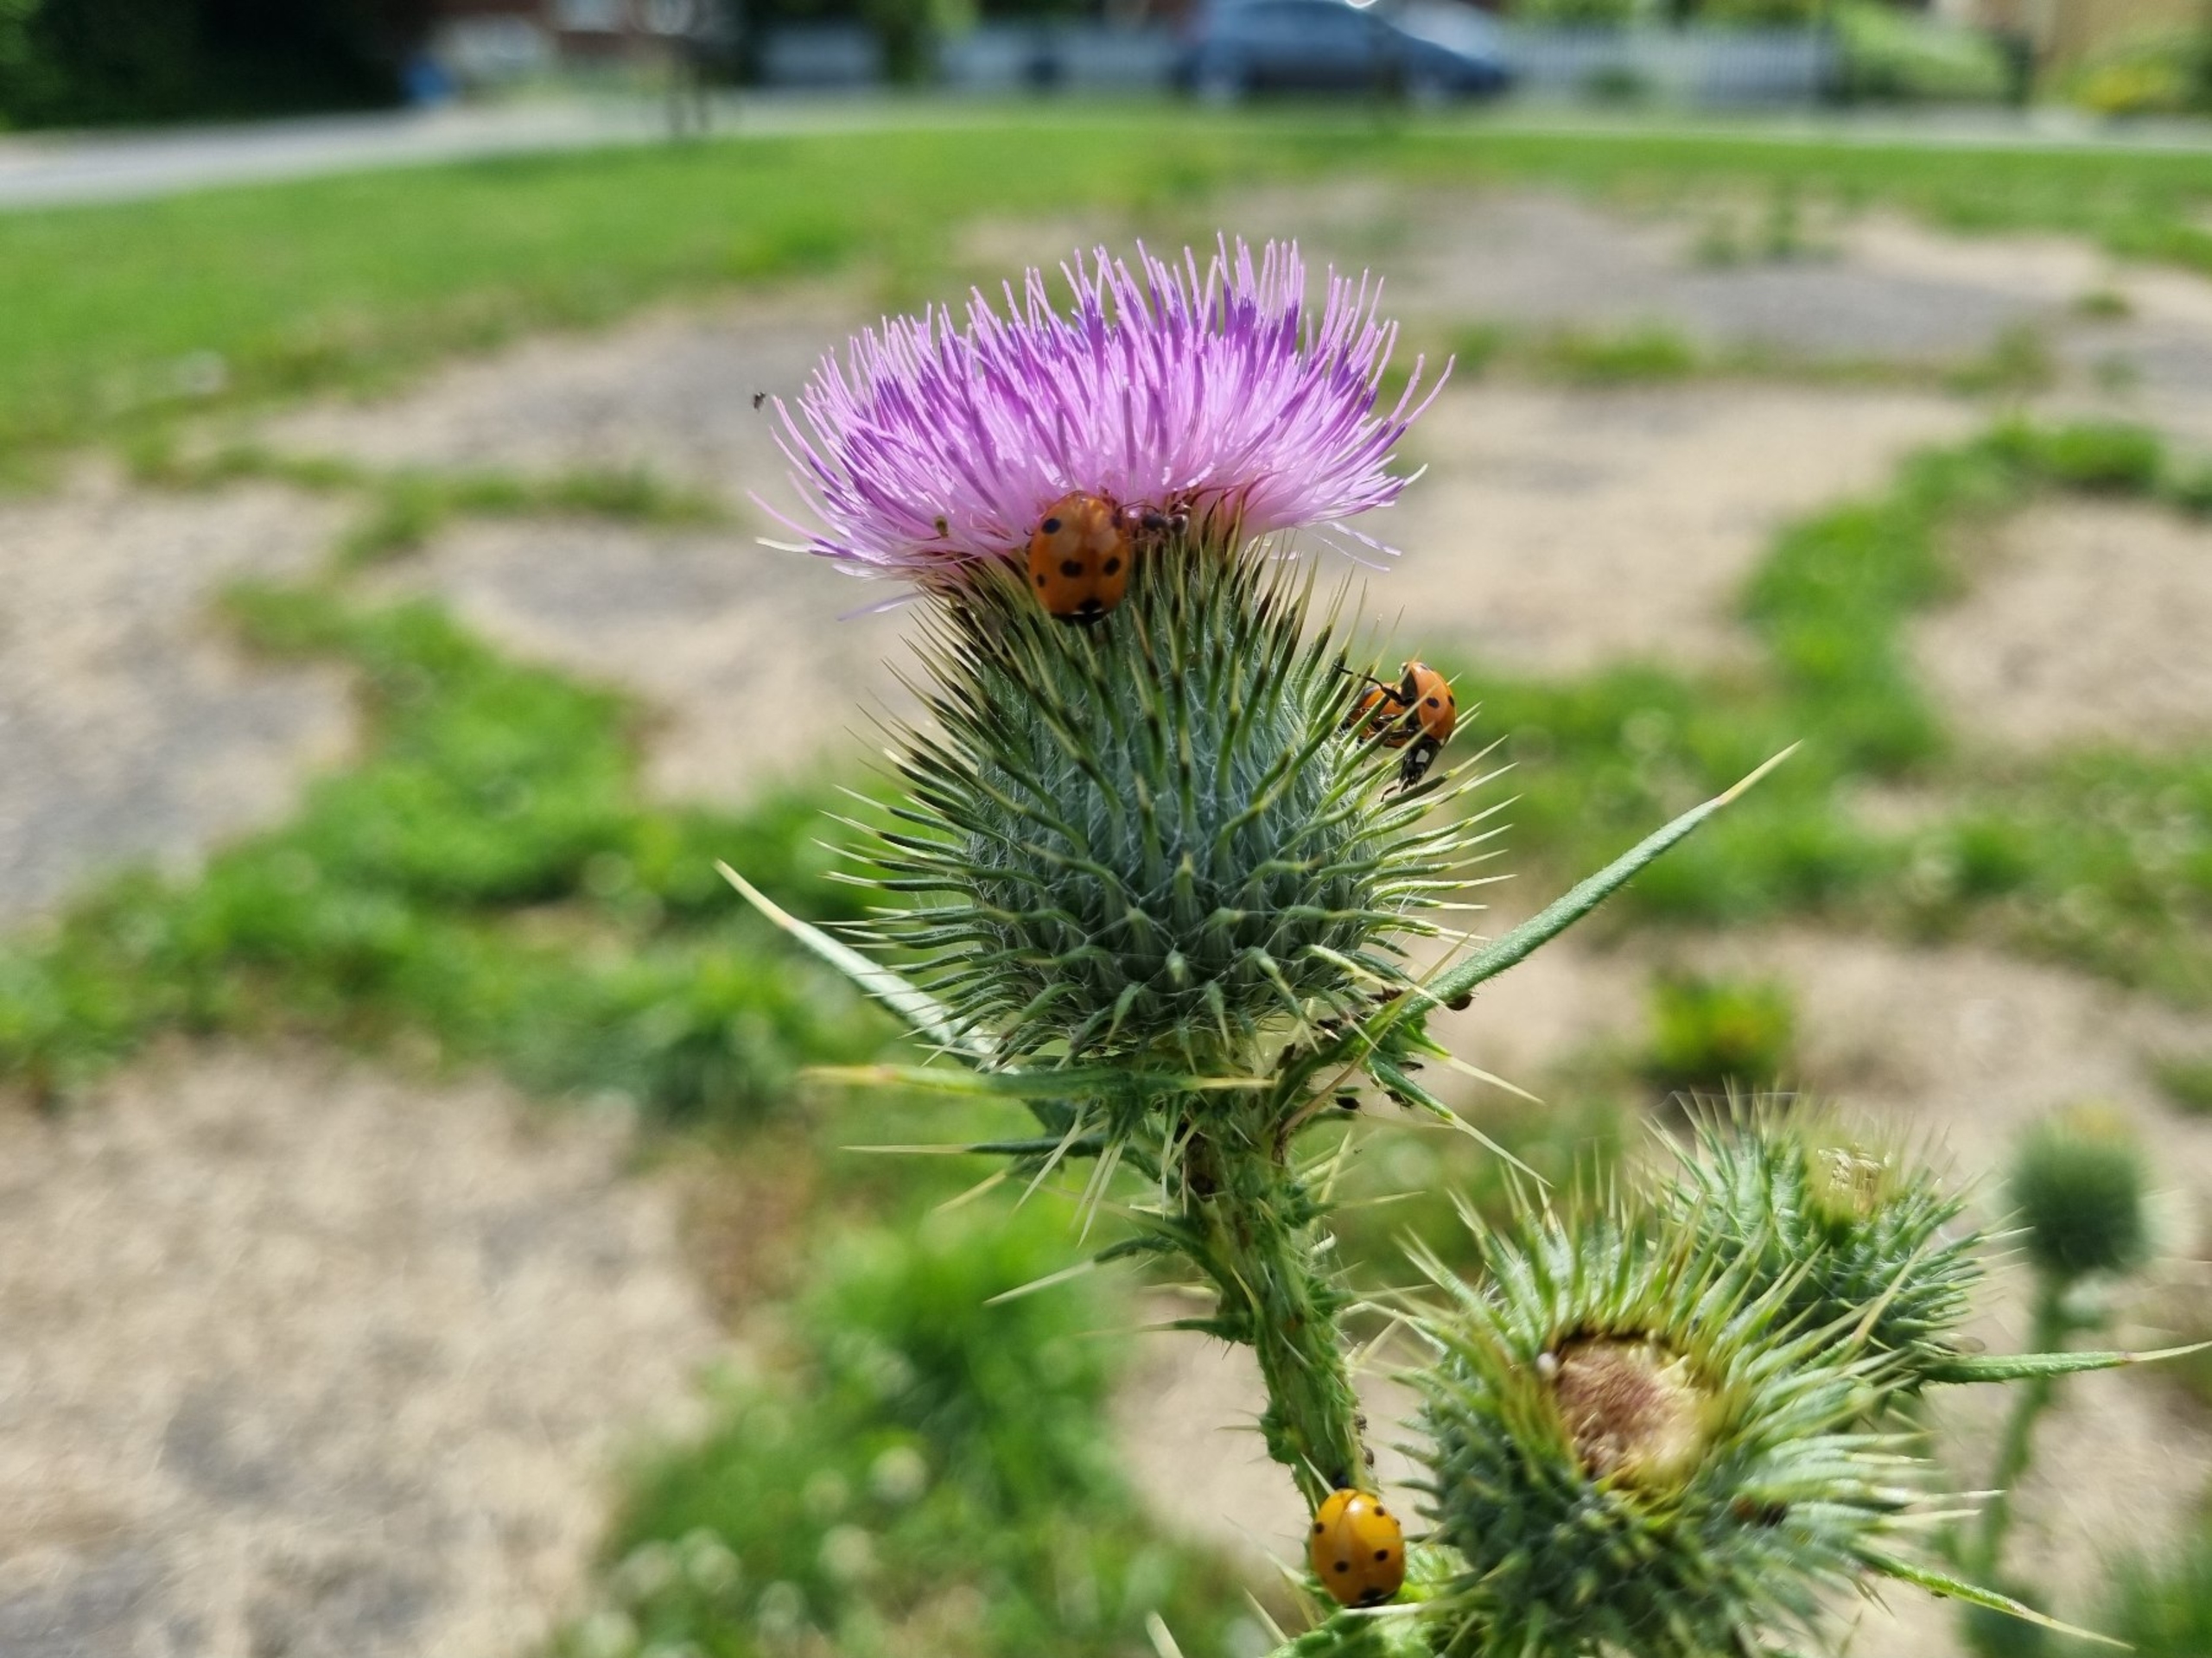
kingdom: Plantae
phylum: Tracheophyta
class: Magnoliopsida
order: Asterales
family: Asteraceae
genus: Cirsium
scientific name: Cirsium vulgare
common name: Horse-tidsel
